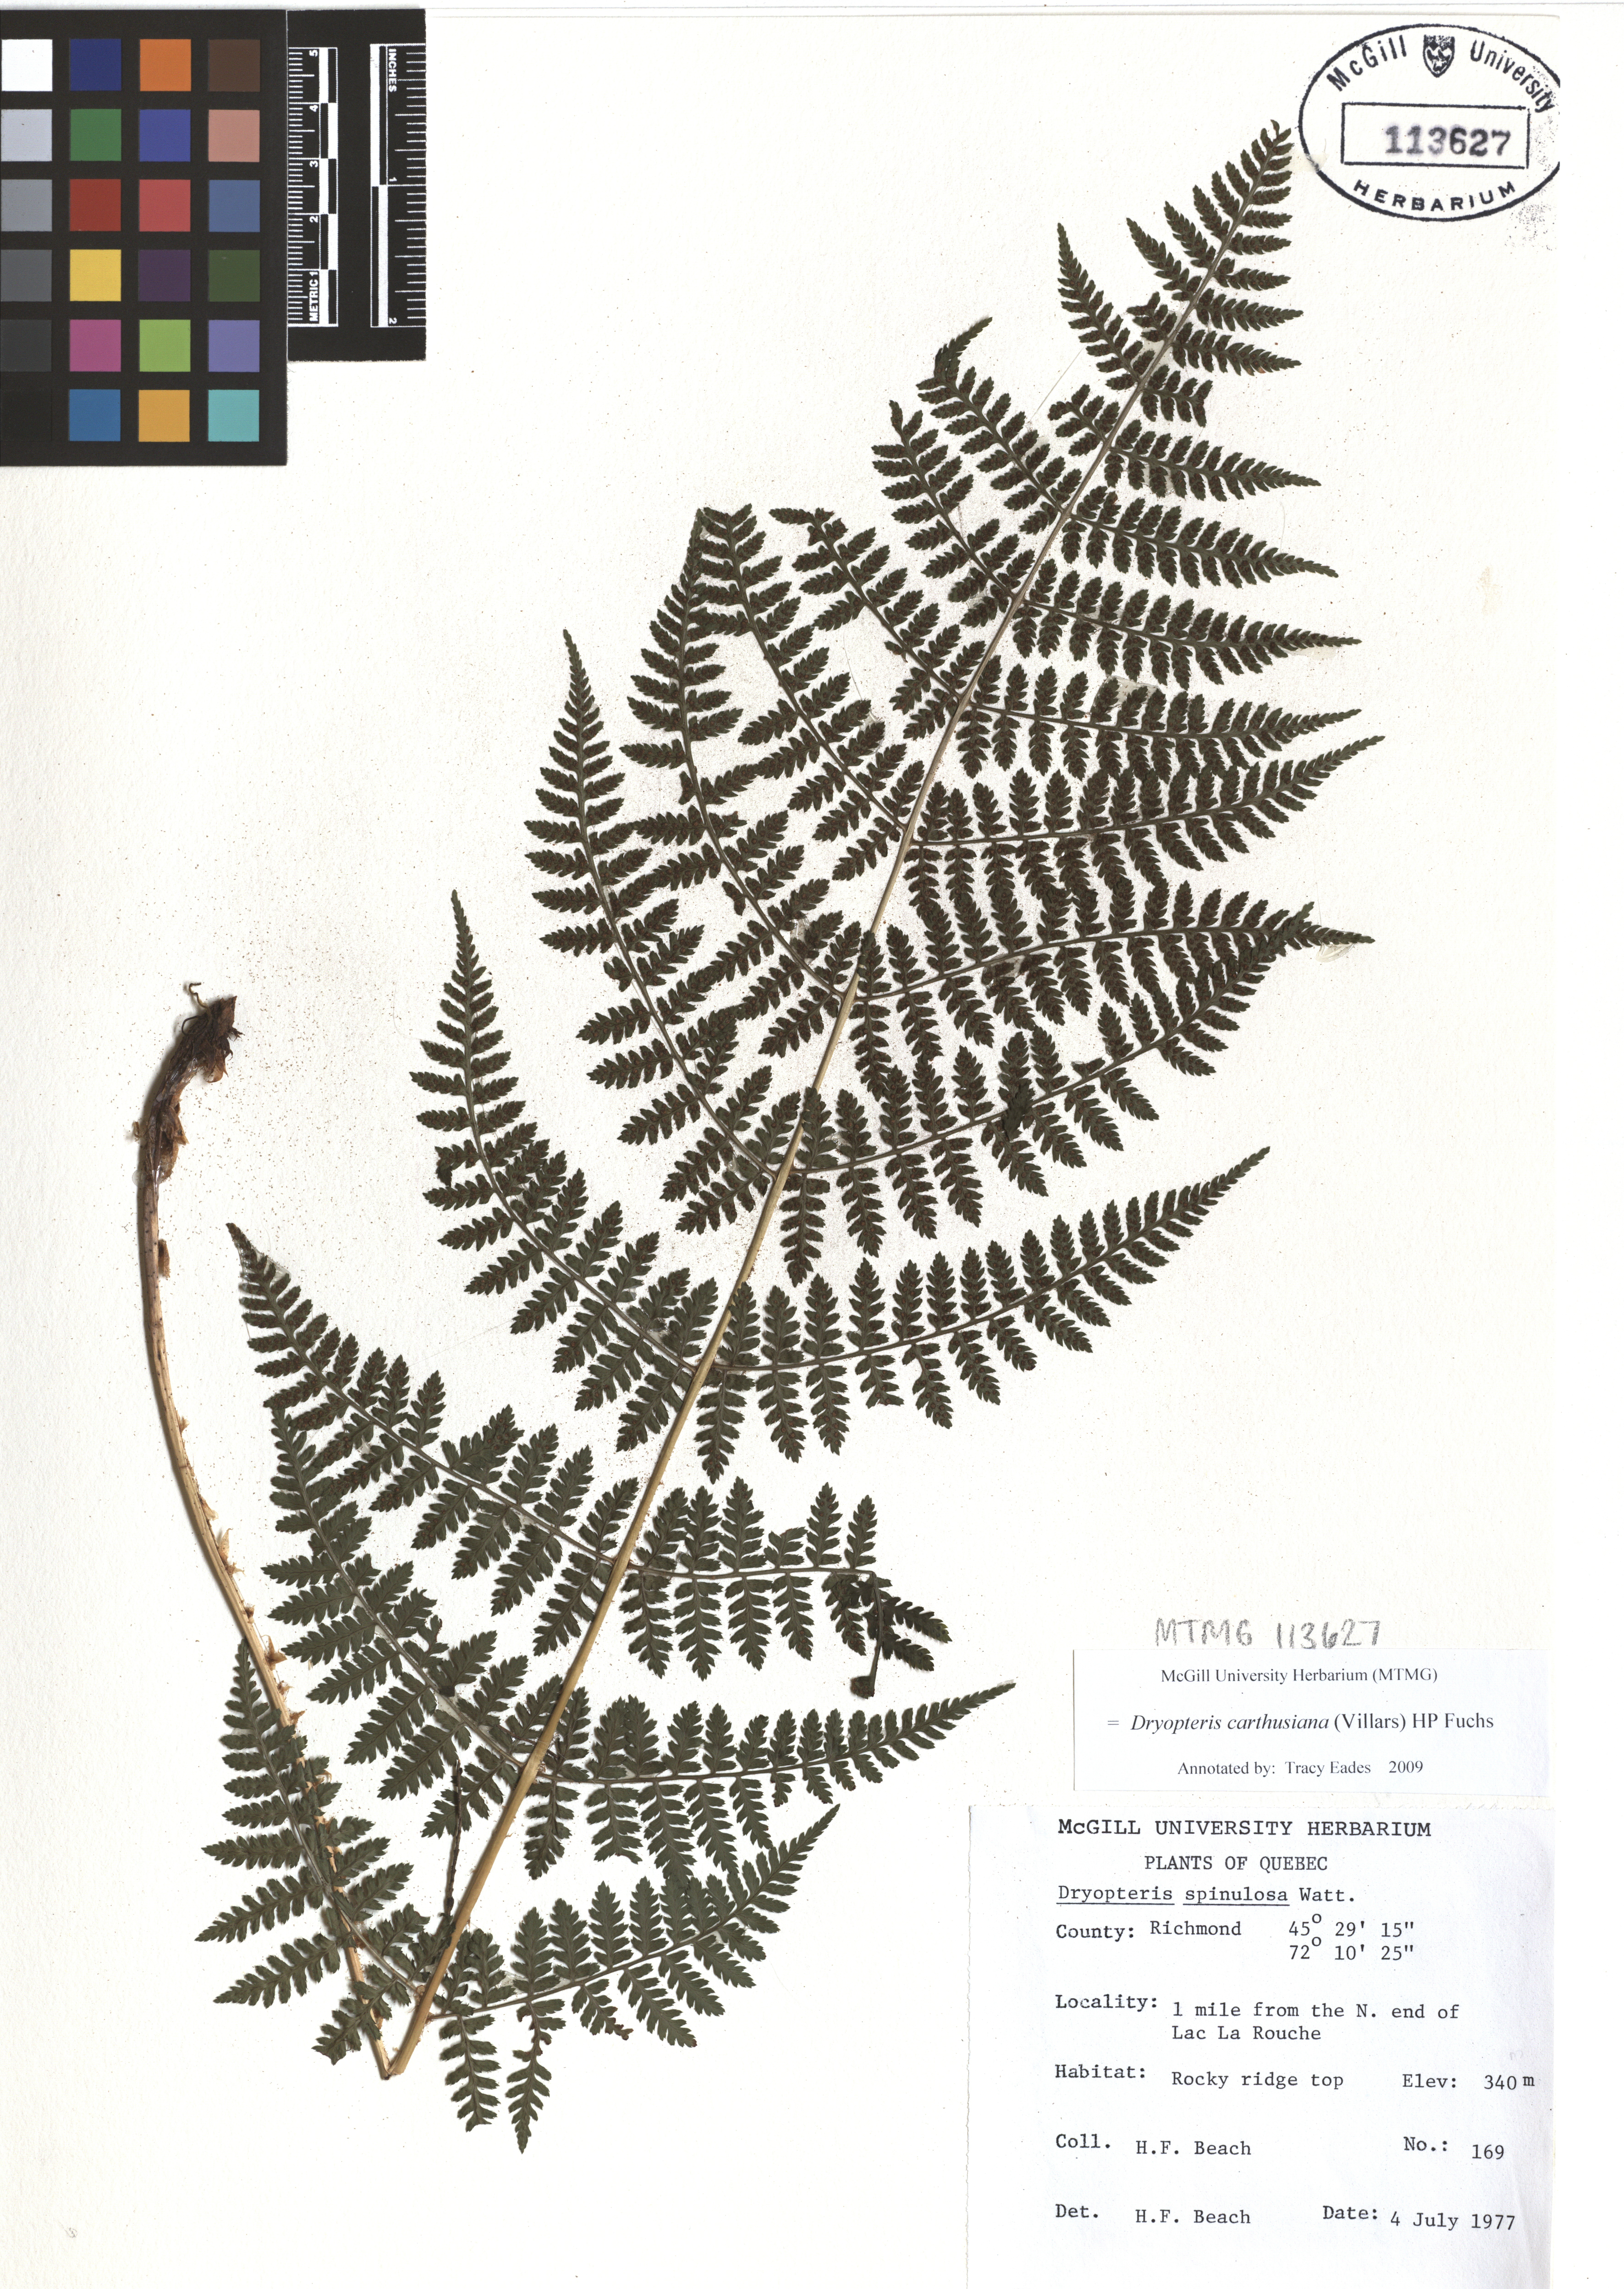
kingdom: Plantae
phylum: Tracheophyta
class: Polypodiopsida
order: Polypodiales
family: Dryopteridaceae
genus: Dryopteris
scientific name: Dryopteris carthusiana
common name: Narrow buckler-fern
